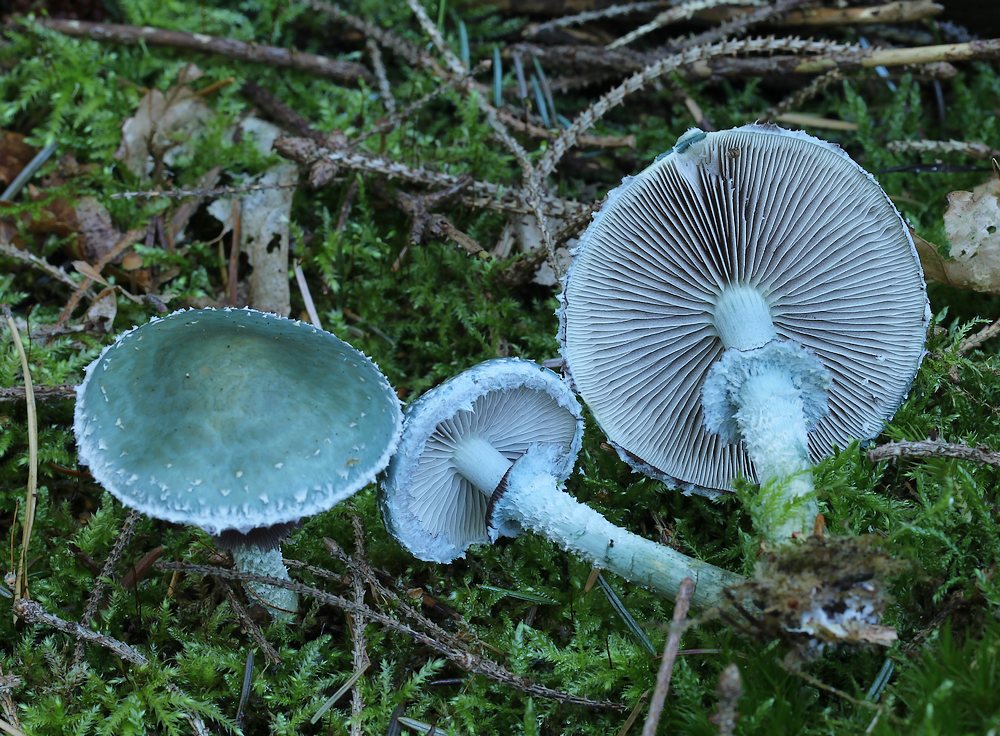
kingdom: Fungi
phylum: Basidiomycota
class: Agaricomycetes
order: Agaricales
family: Strophariaceae
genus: Stropharia
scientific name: Stropharia aeruginosa
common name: spanskgrøn bredblad
